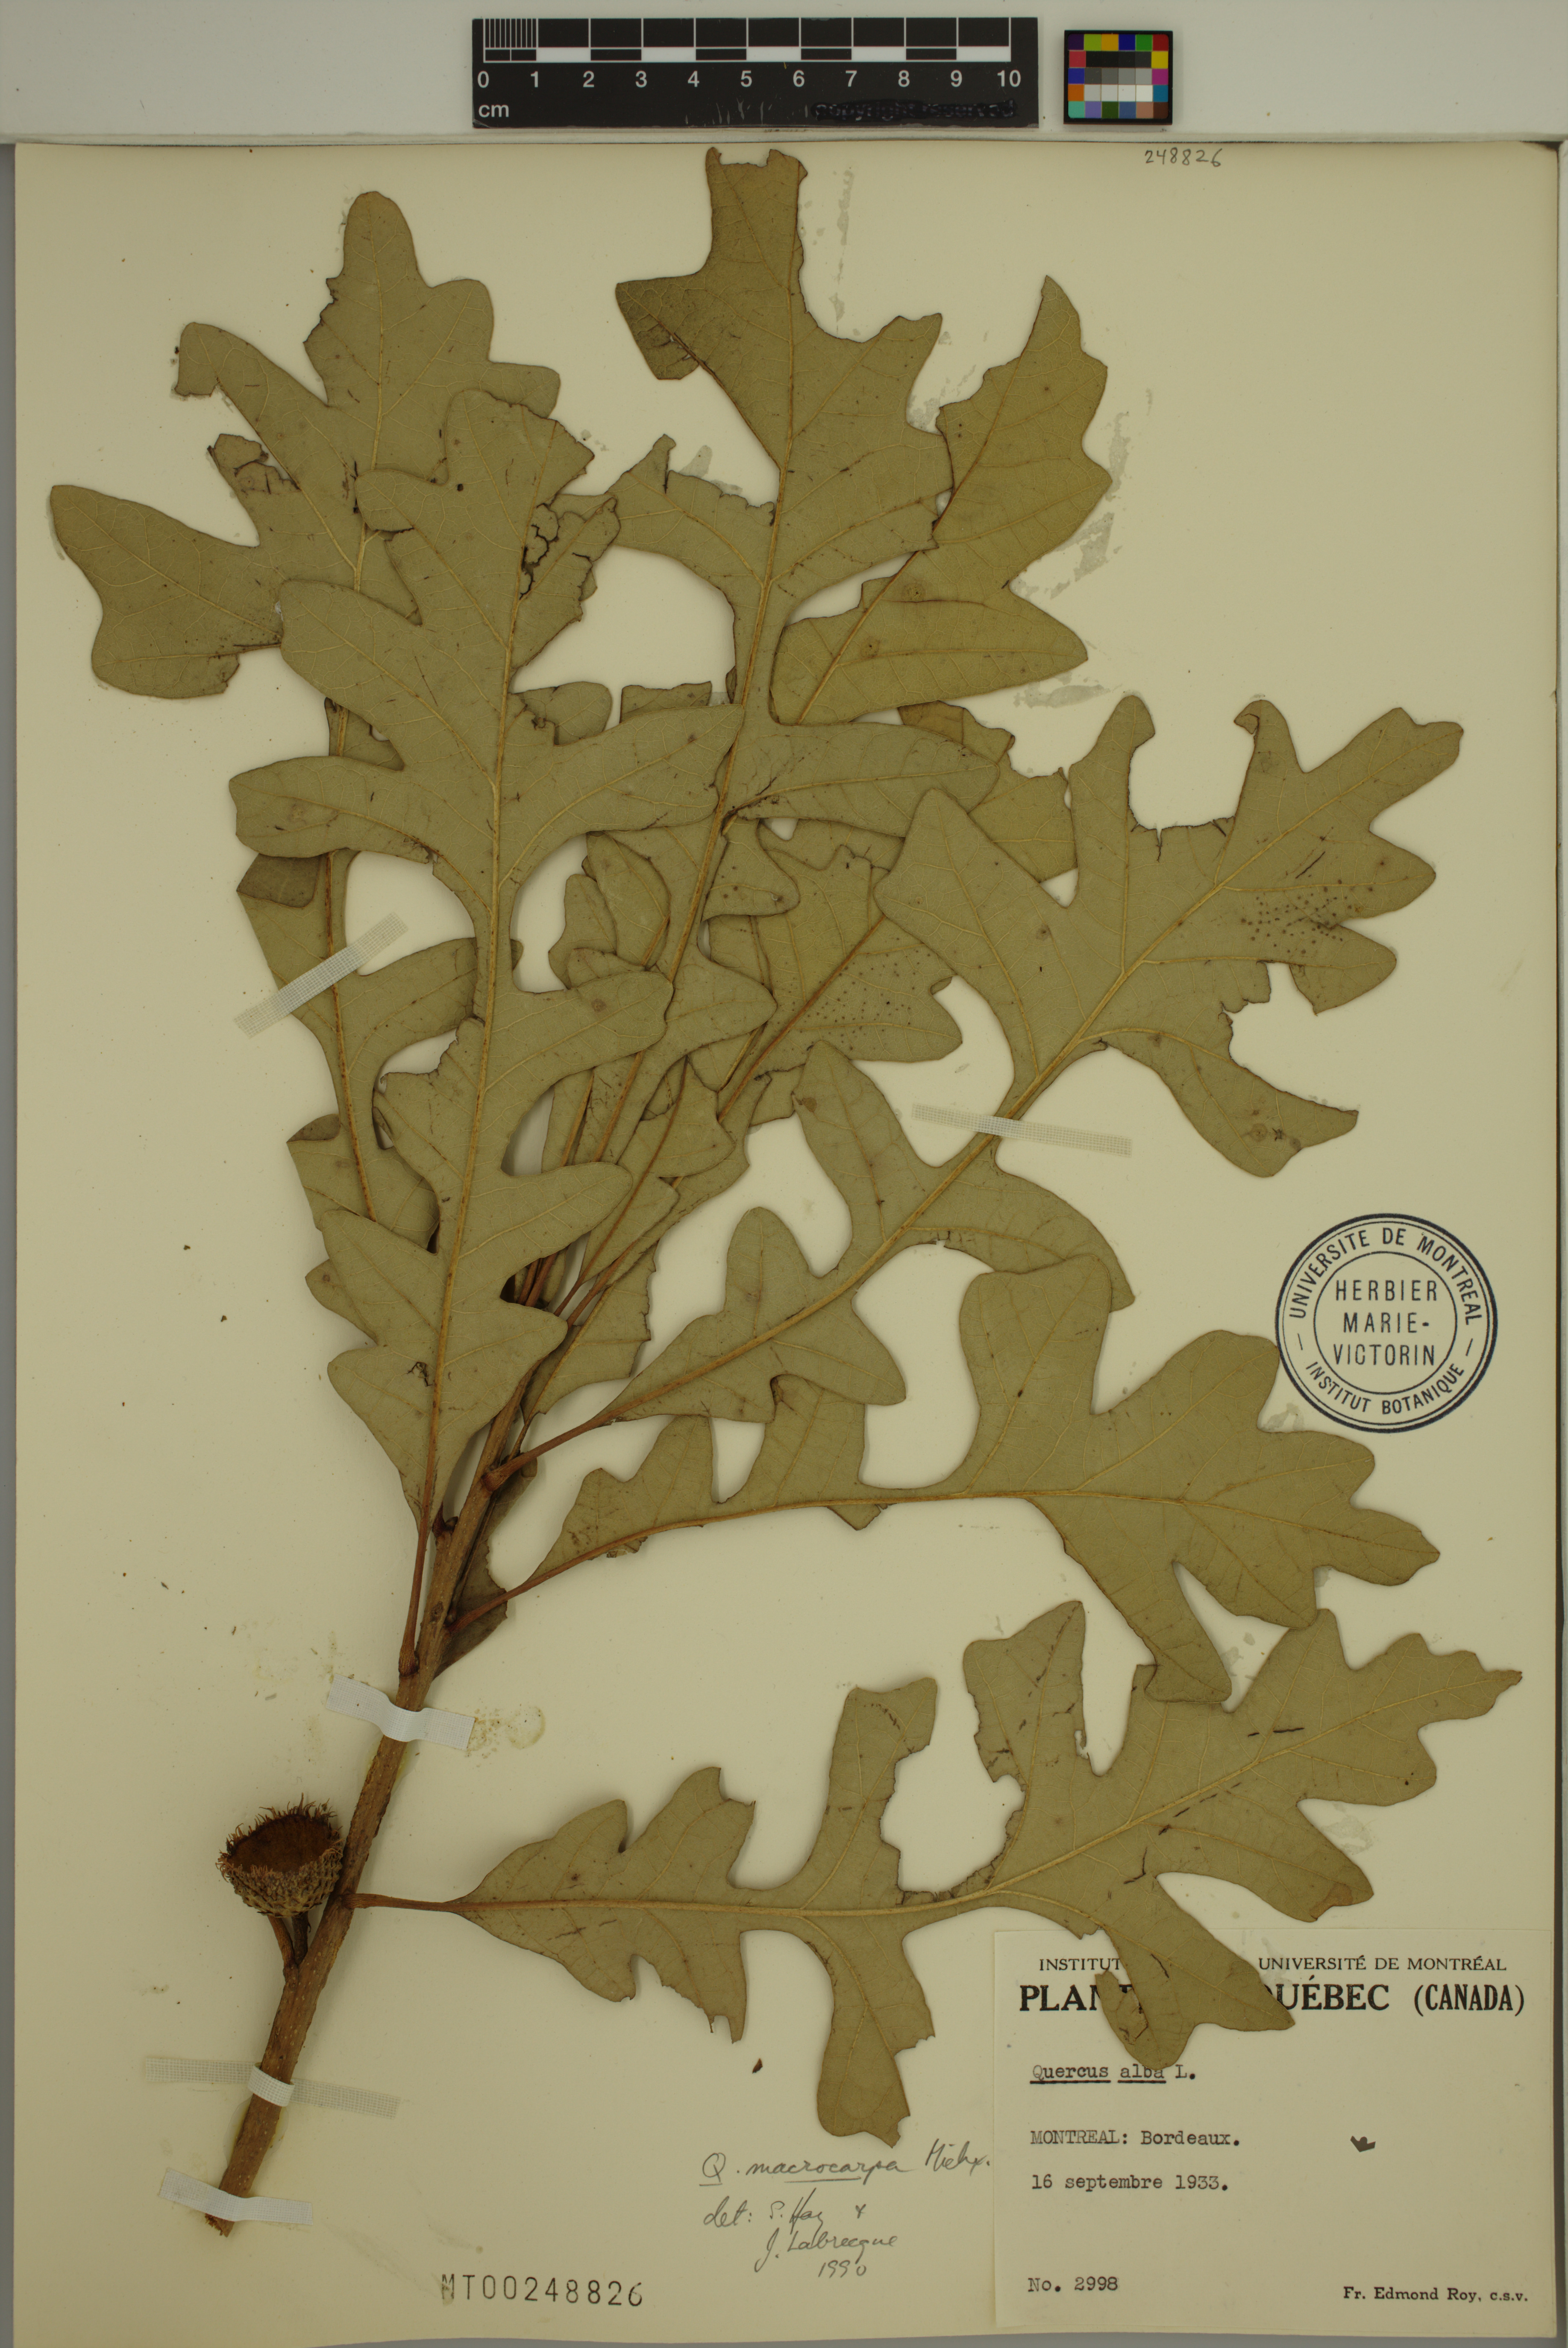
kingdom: Plantae
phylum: Tracheophyta
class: Magnoliopsida
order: Fagales
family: Fagaceae
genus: Quercus
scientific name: Quercus macrocarpa
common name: Bur oak
